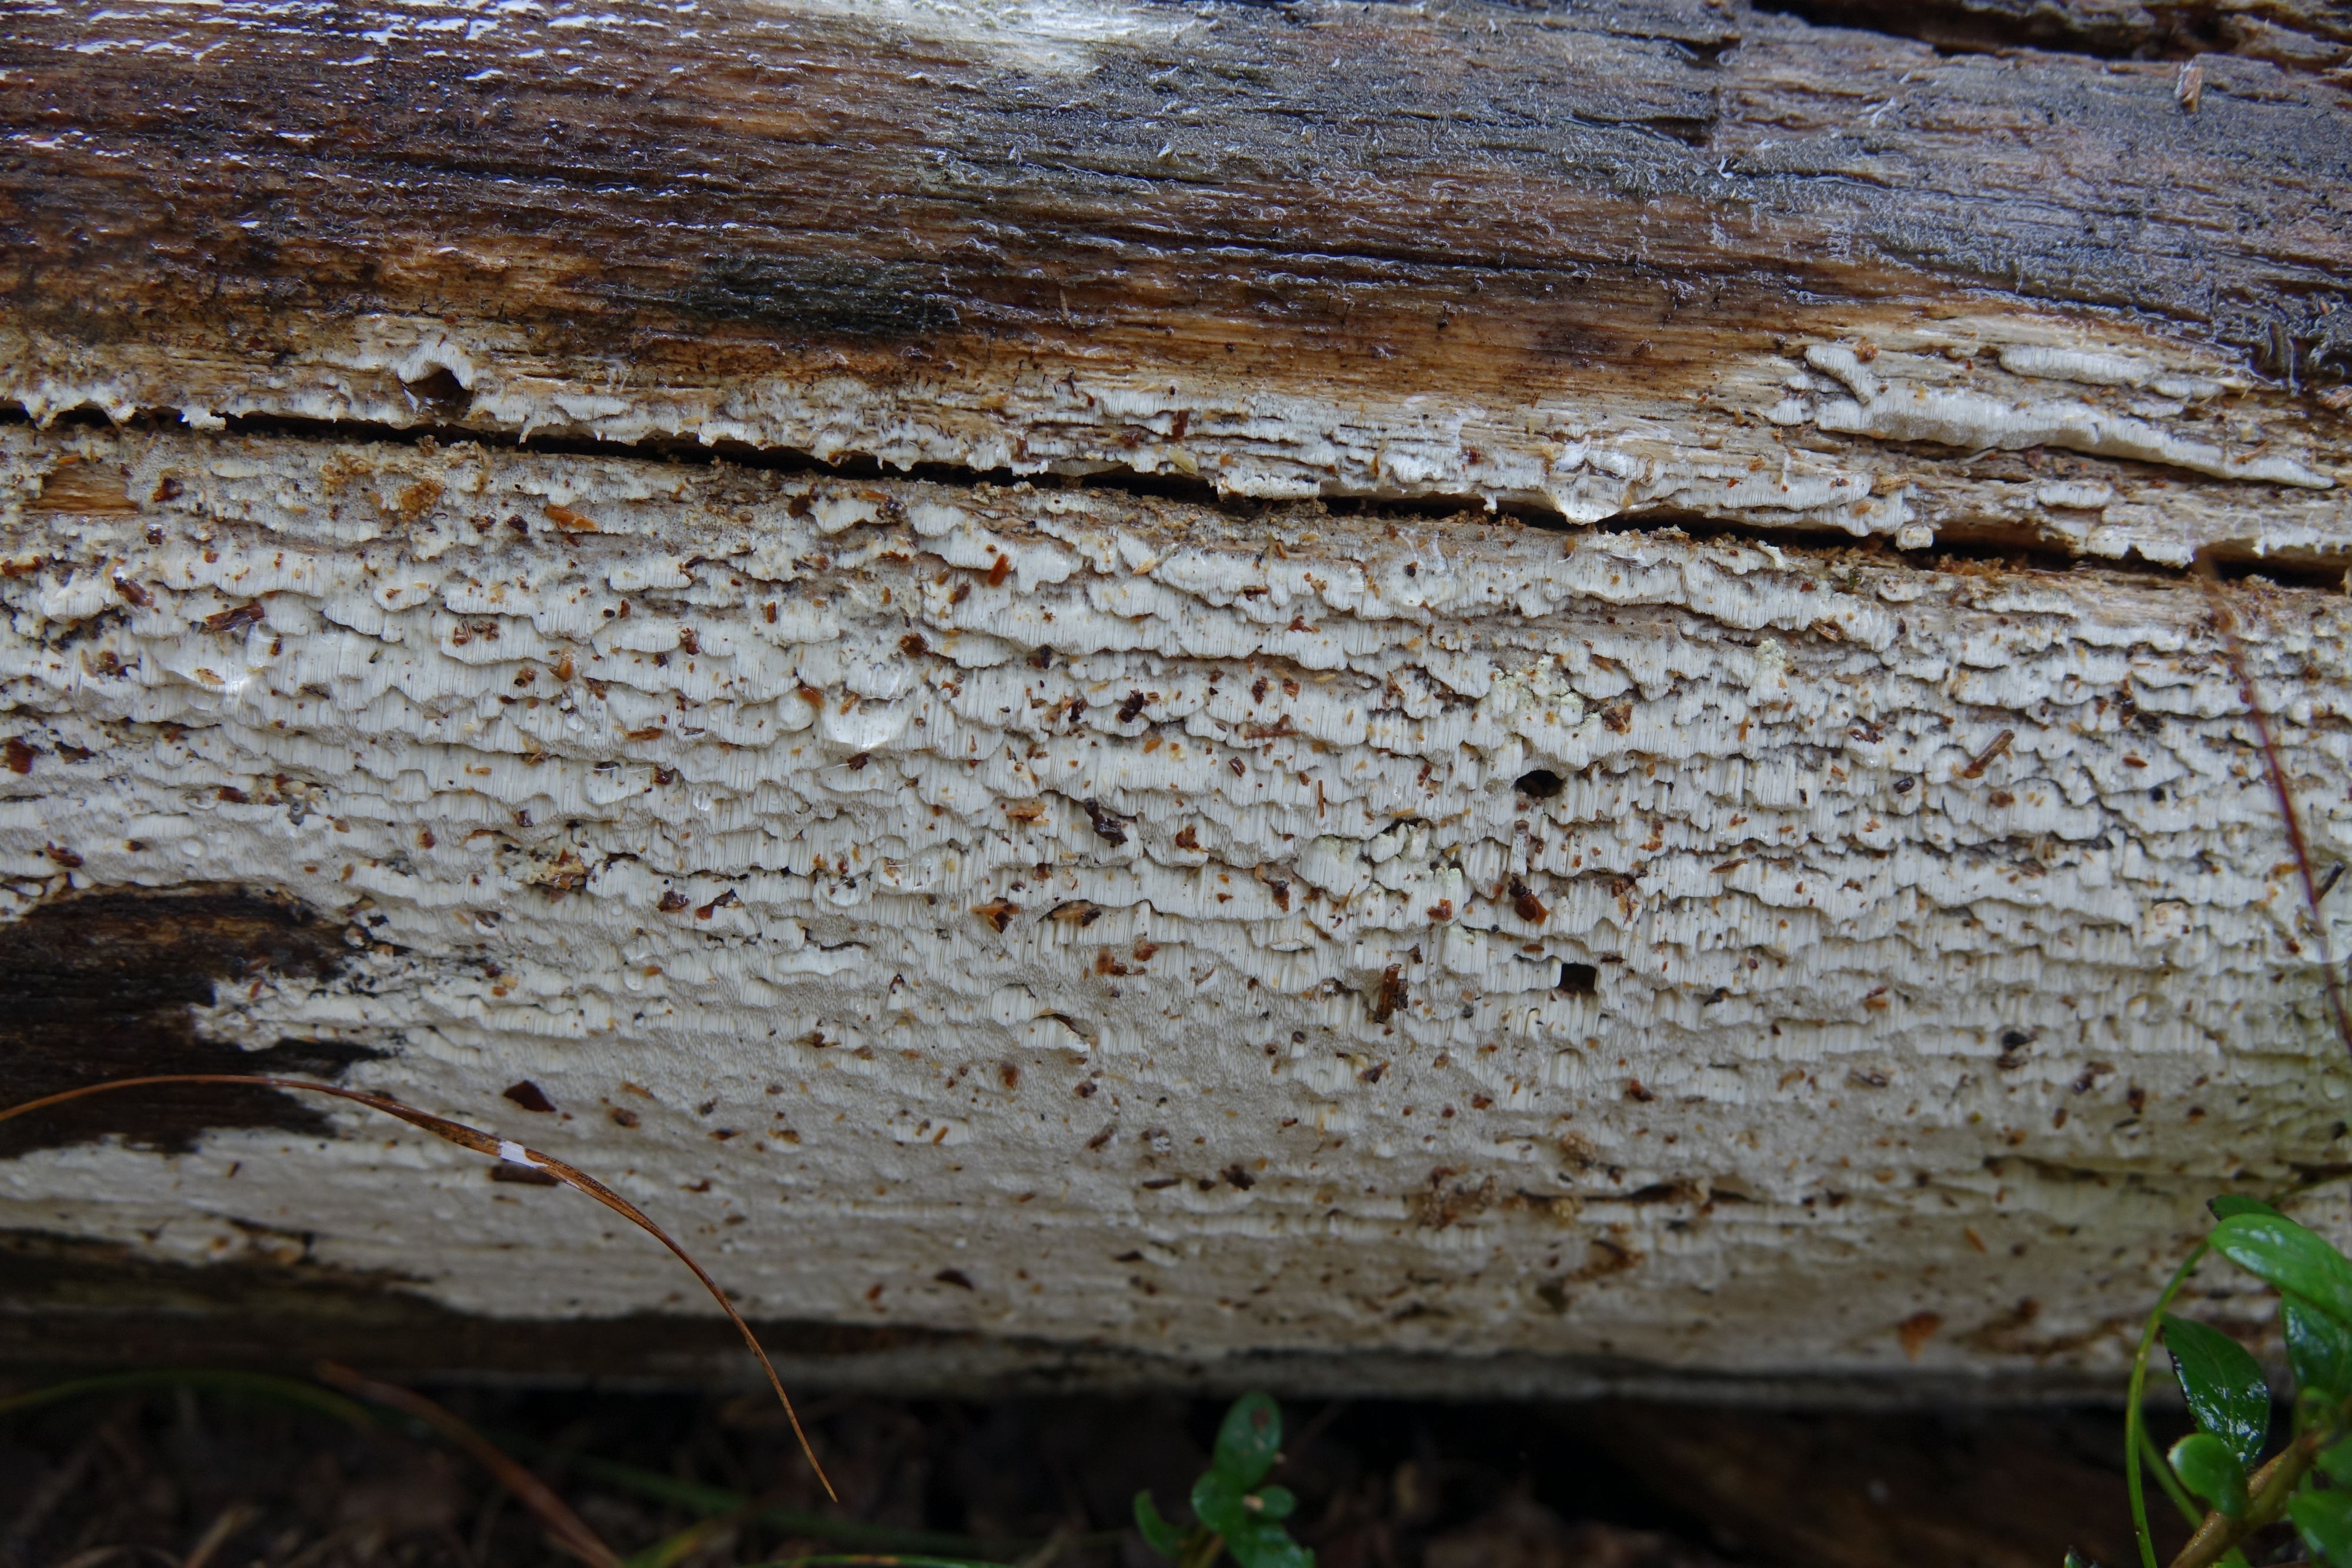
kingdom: Fungi
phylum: Basidiomycota
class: Agaricomycetes
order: Polyporales
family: Fomitopsidaceae
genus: Daedalea
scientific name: Daedalea xantha
